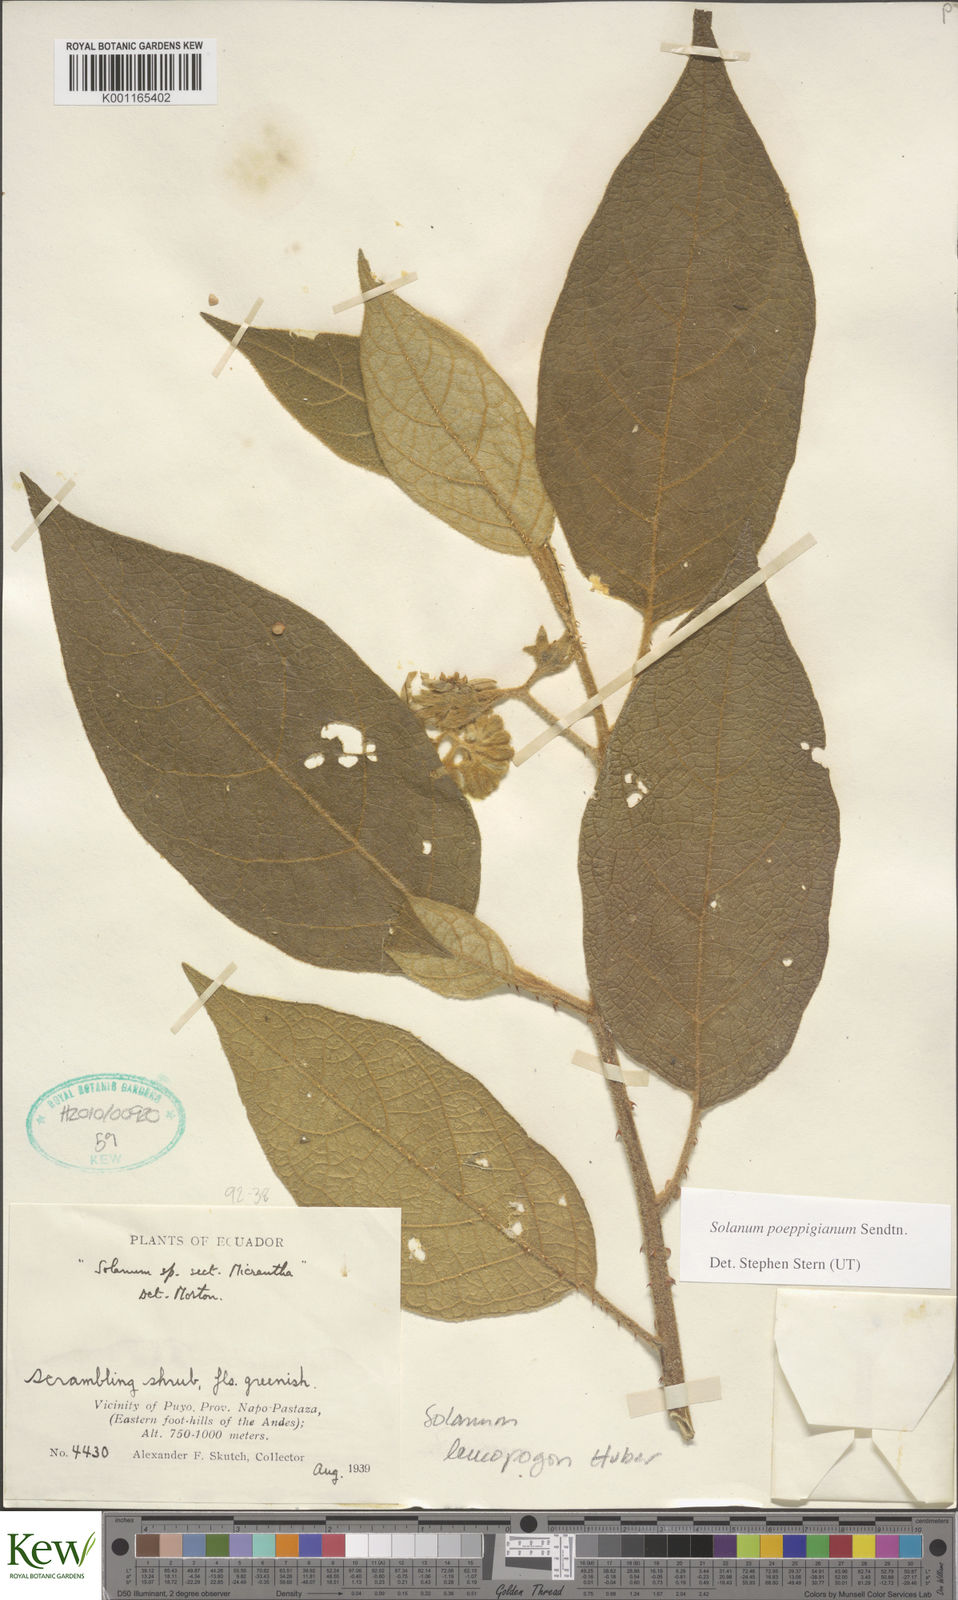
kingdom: Plantae
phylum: Tracheophyta
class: Magnoliopsida
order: Solanales
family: Solanaceae
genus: Solanum
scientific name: Solanum valdiviense
